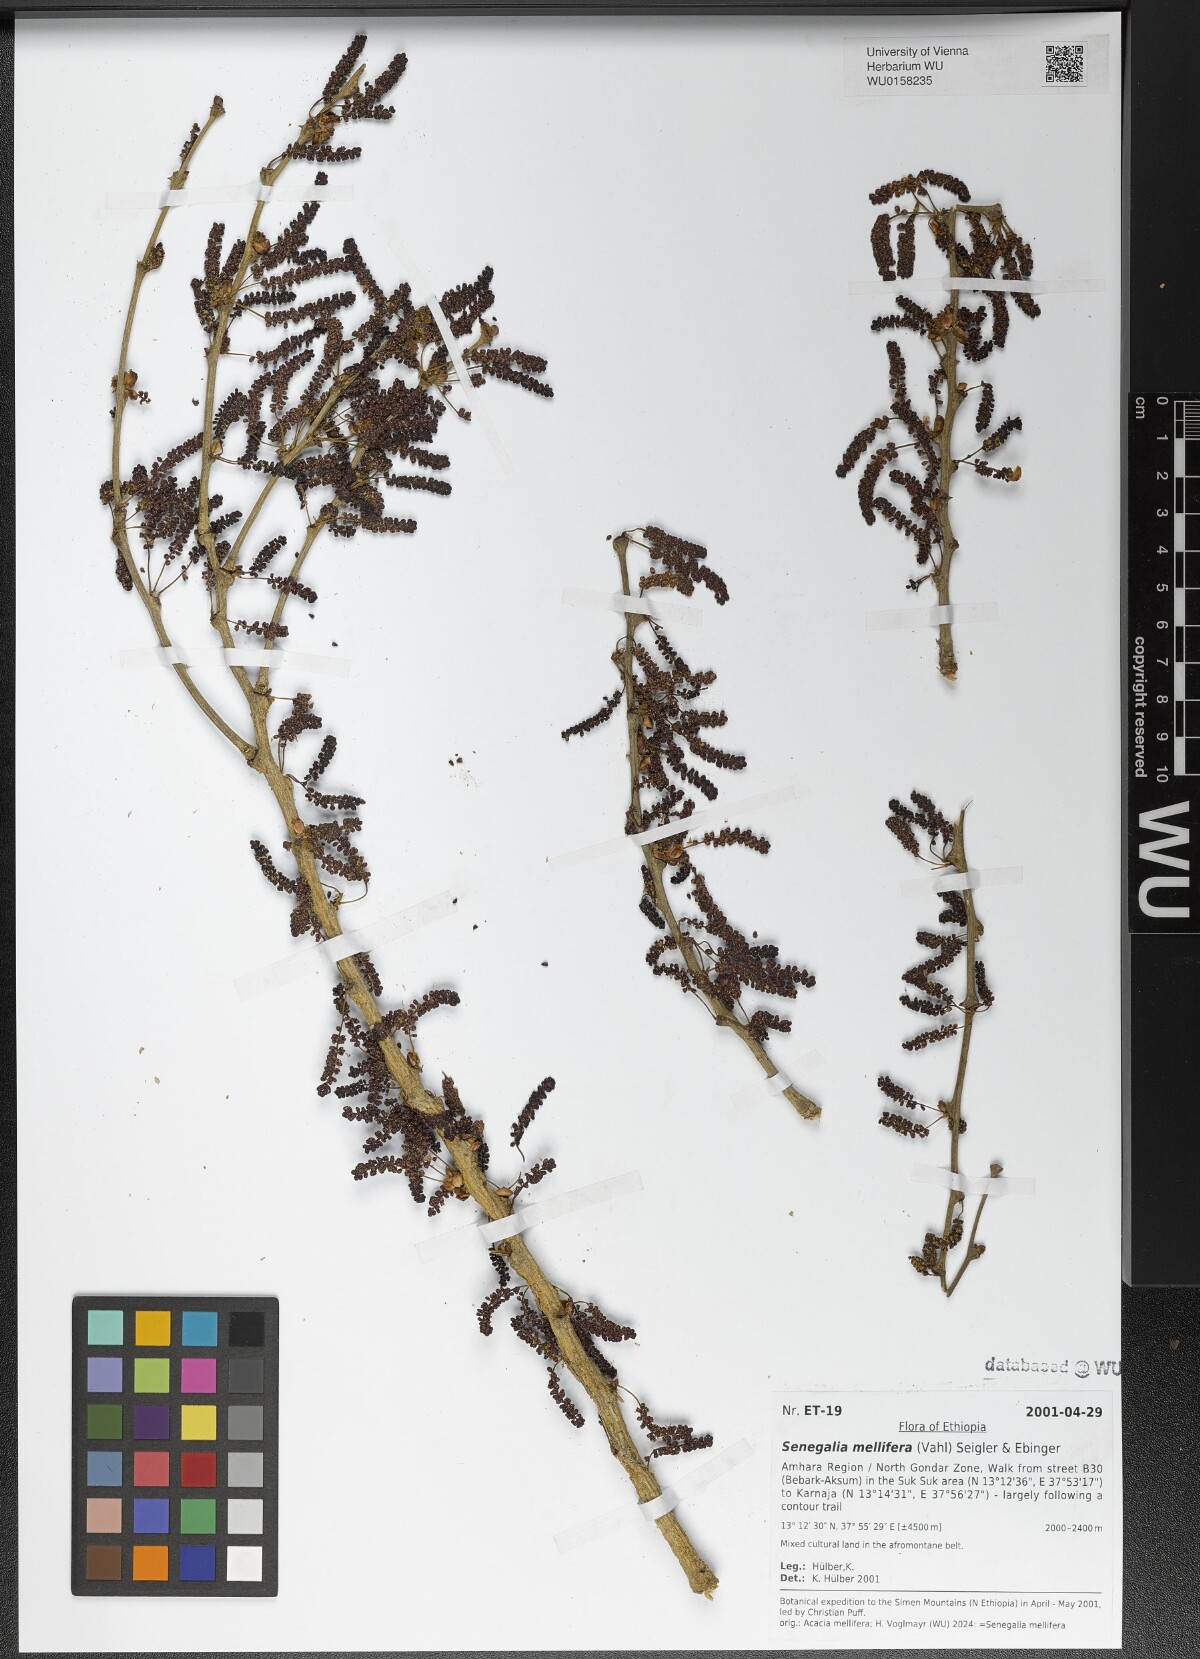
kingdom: Plantae
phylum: Tracheophyta
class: Magnoliopsida
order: Fabales
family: Fabaceae
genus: Senegalia
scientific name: Senegalia mellifera
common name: Hookthorn
